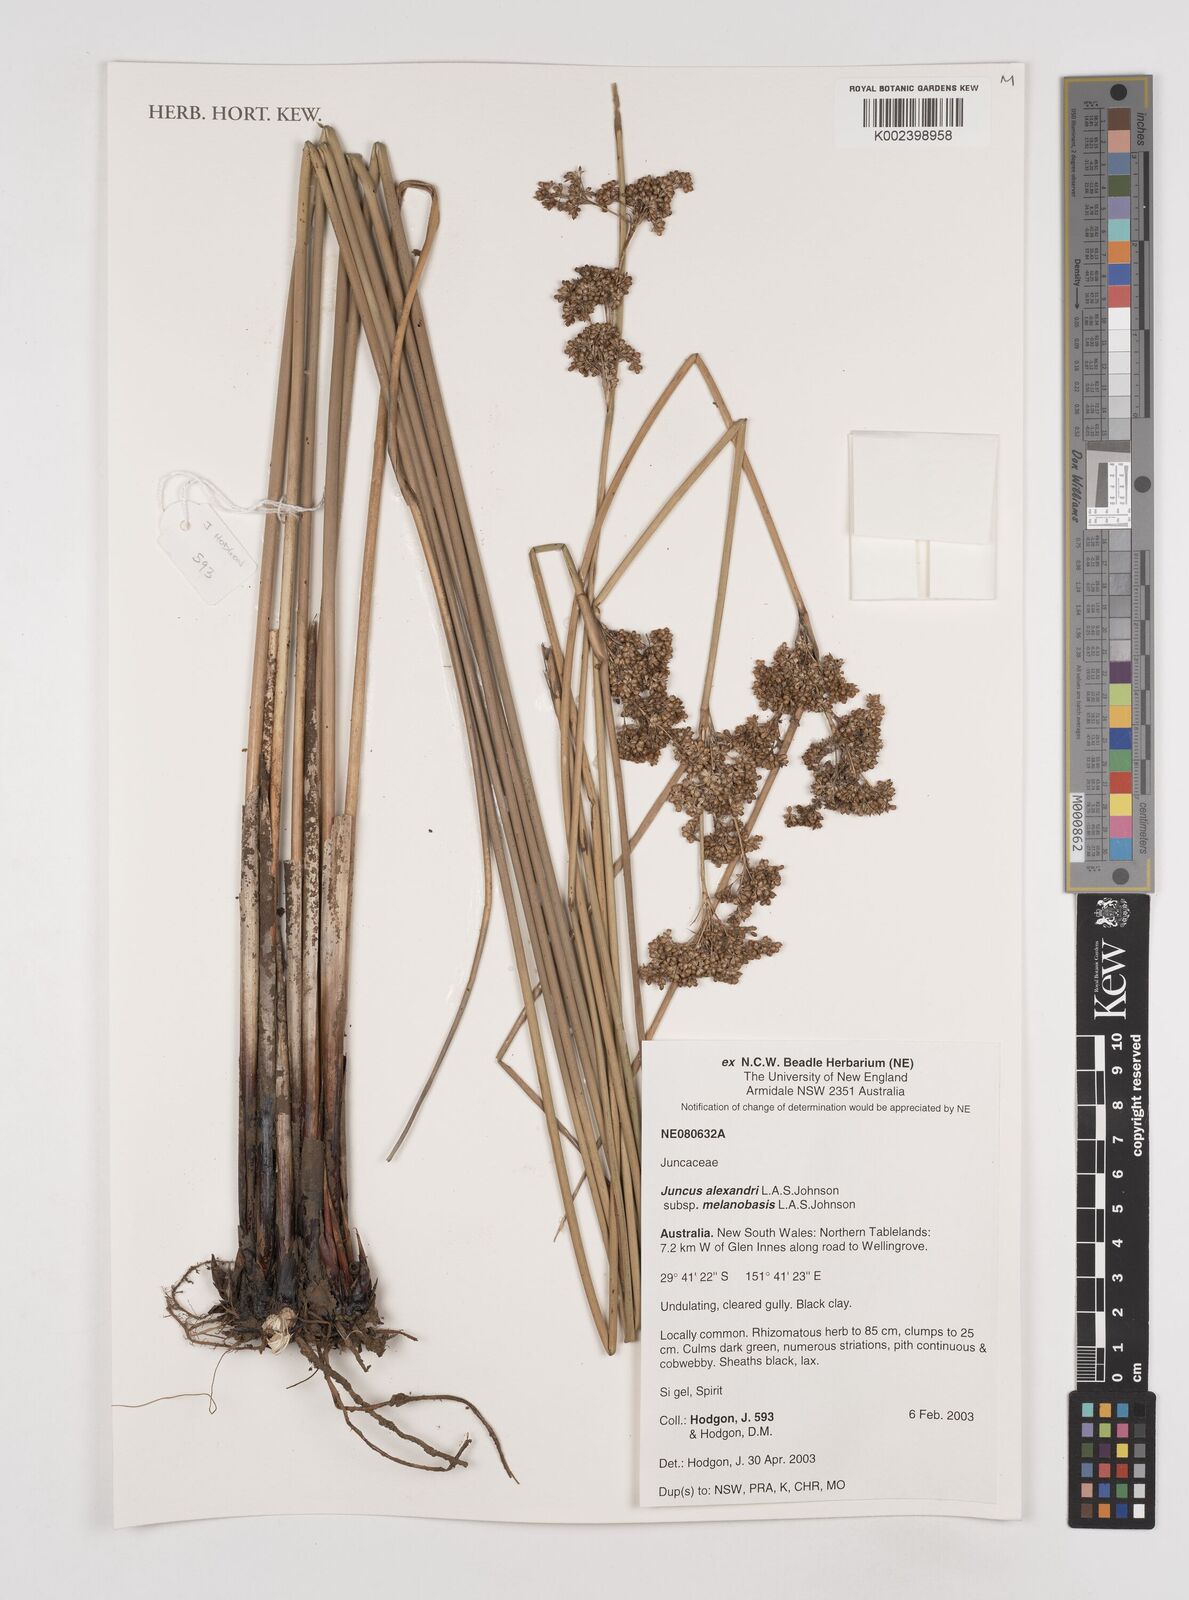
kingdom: Plantae
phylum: Tracheophyta
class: Liliopsida
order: Poales
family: Juncaceae
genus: Juncus
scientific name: Juncus alexandri
